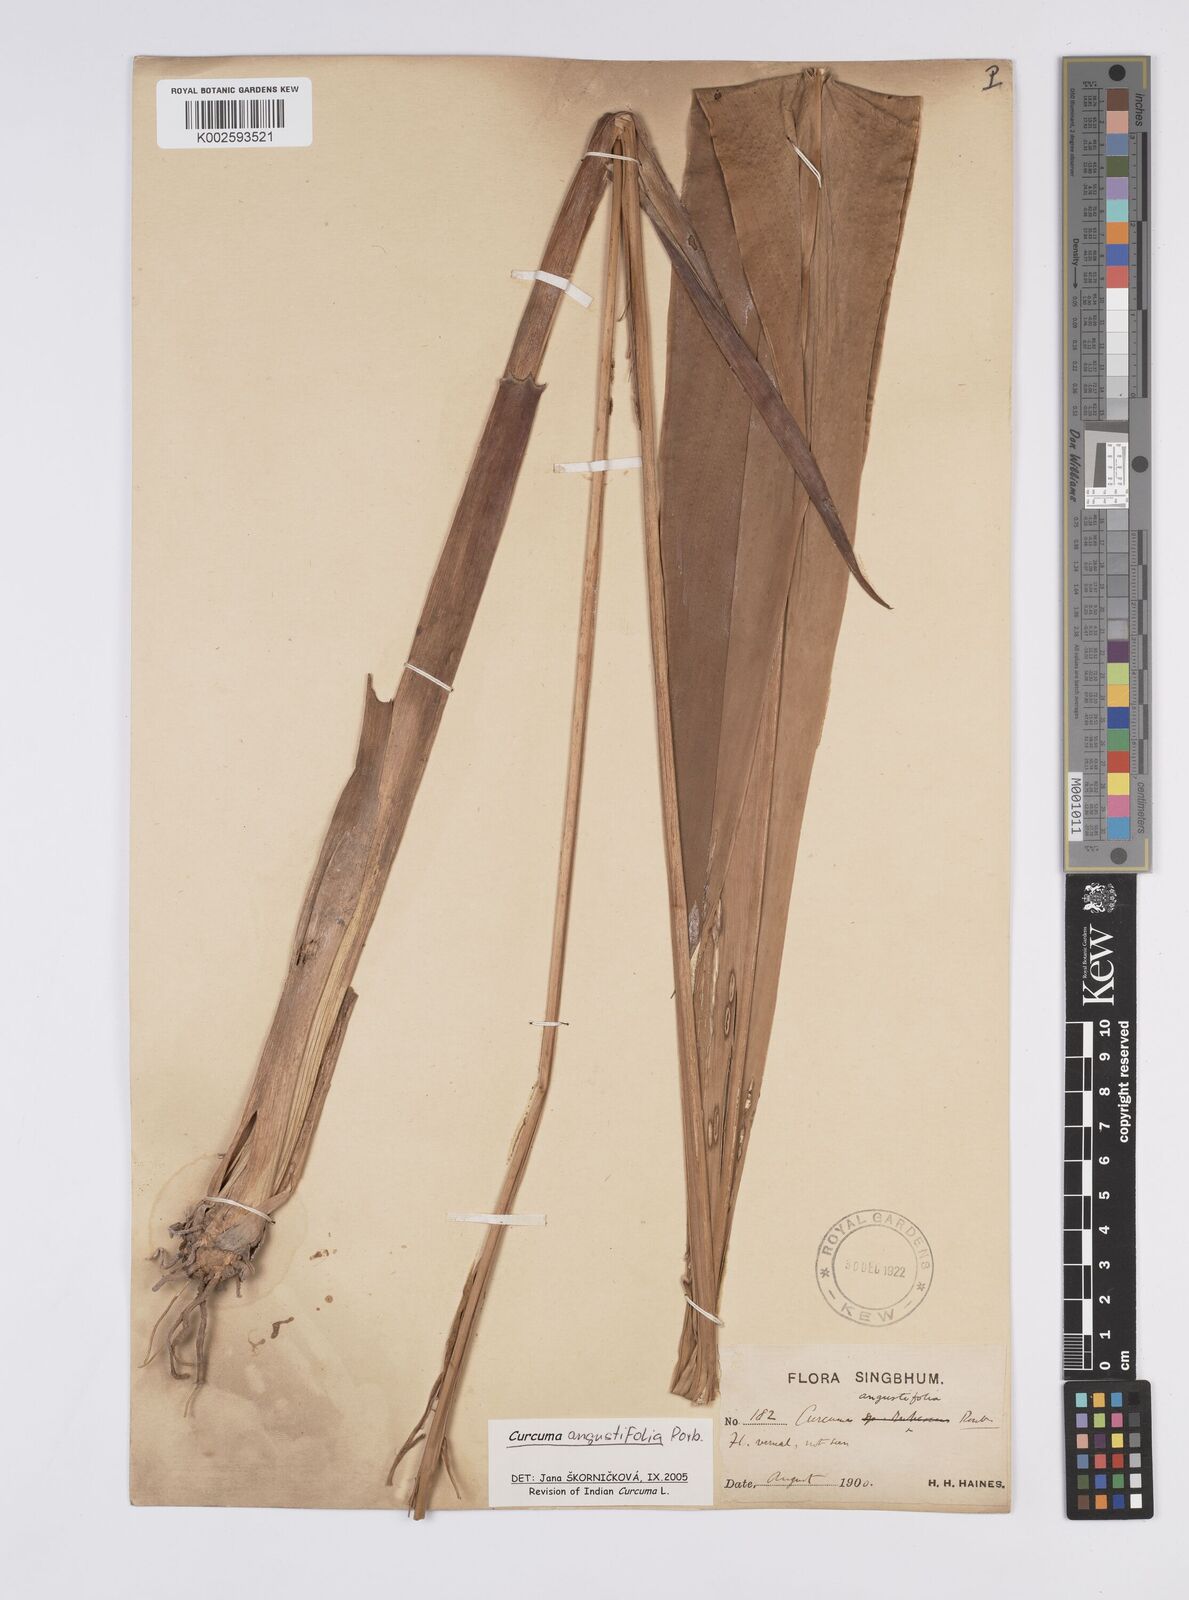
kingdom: Plantae
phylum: Tracheophyta
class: Liliopsida
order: Zingiberales
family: Zingiberaceae
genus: Curcuma
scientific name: Curcuma angustifolia
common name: East indian arrowroot
